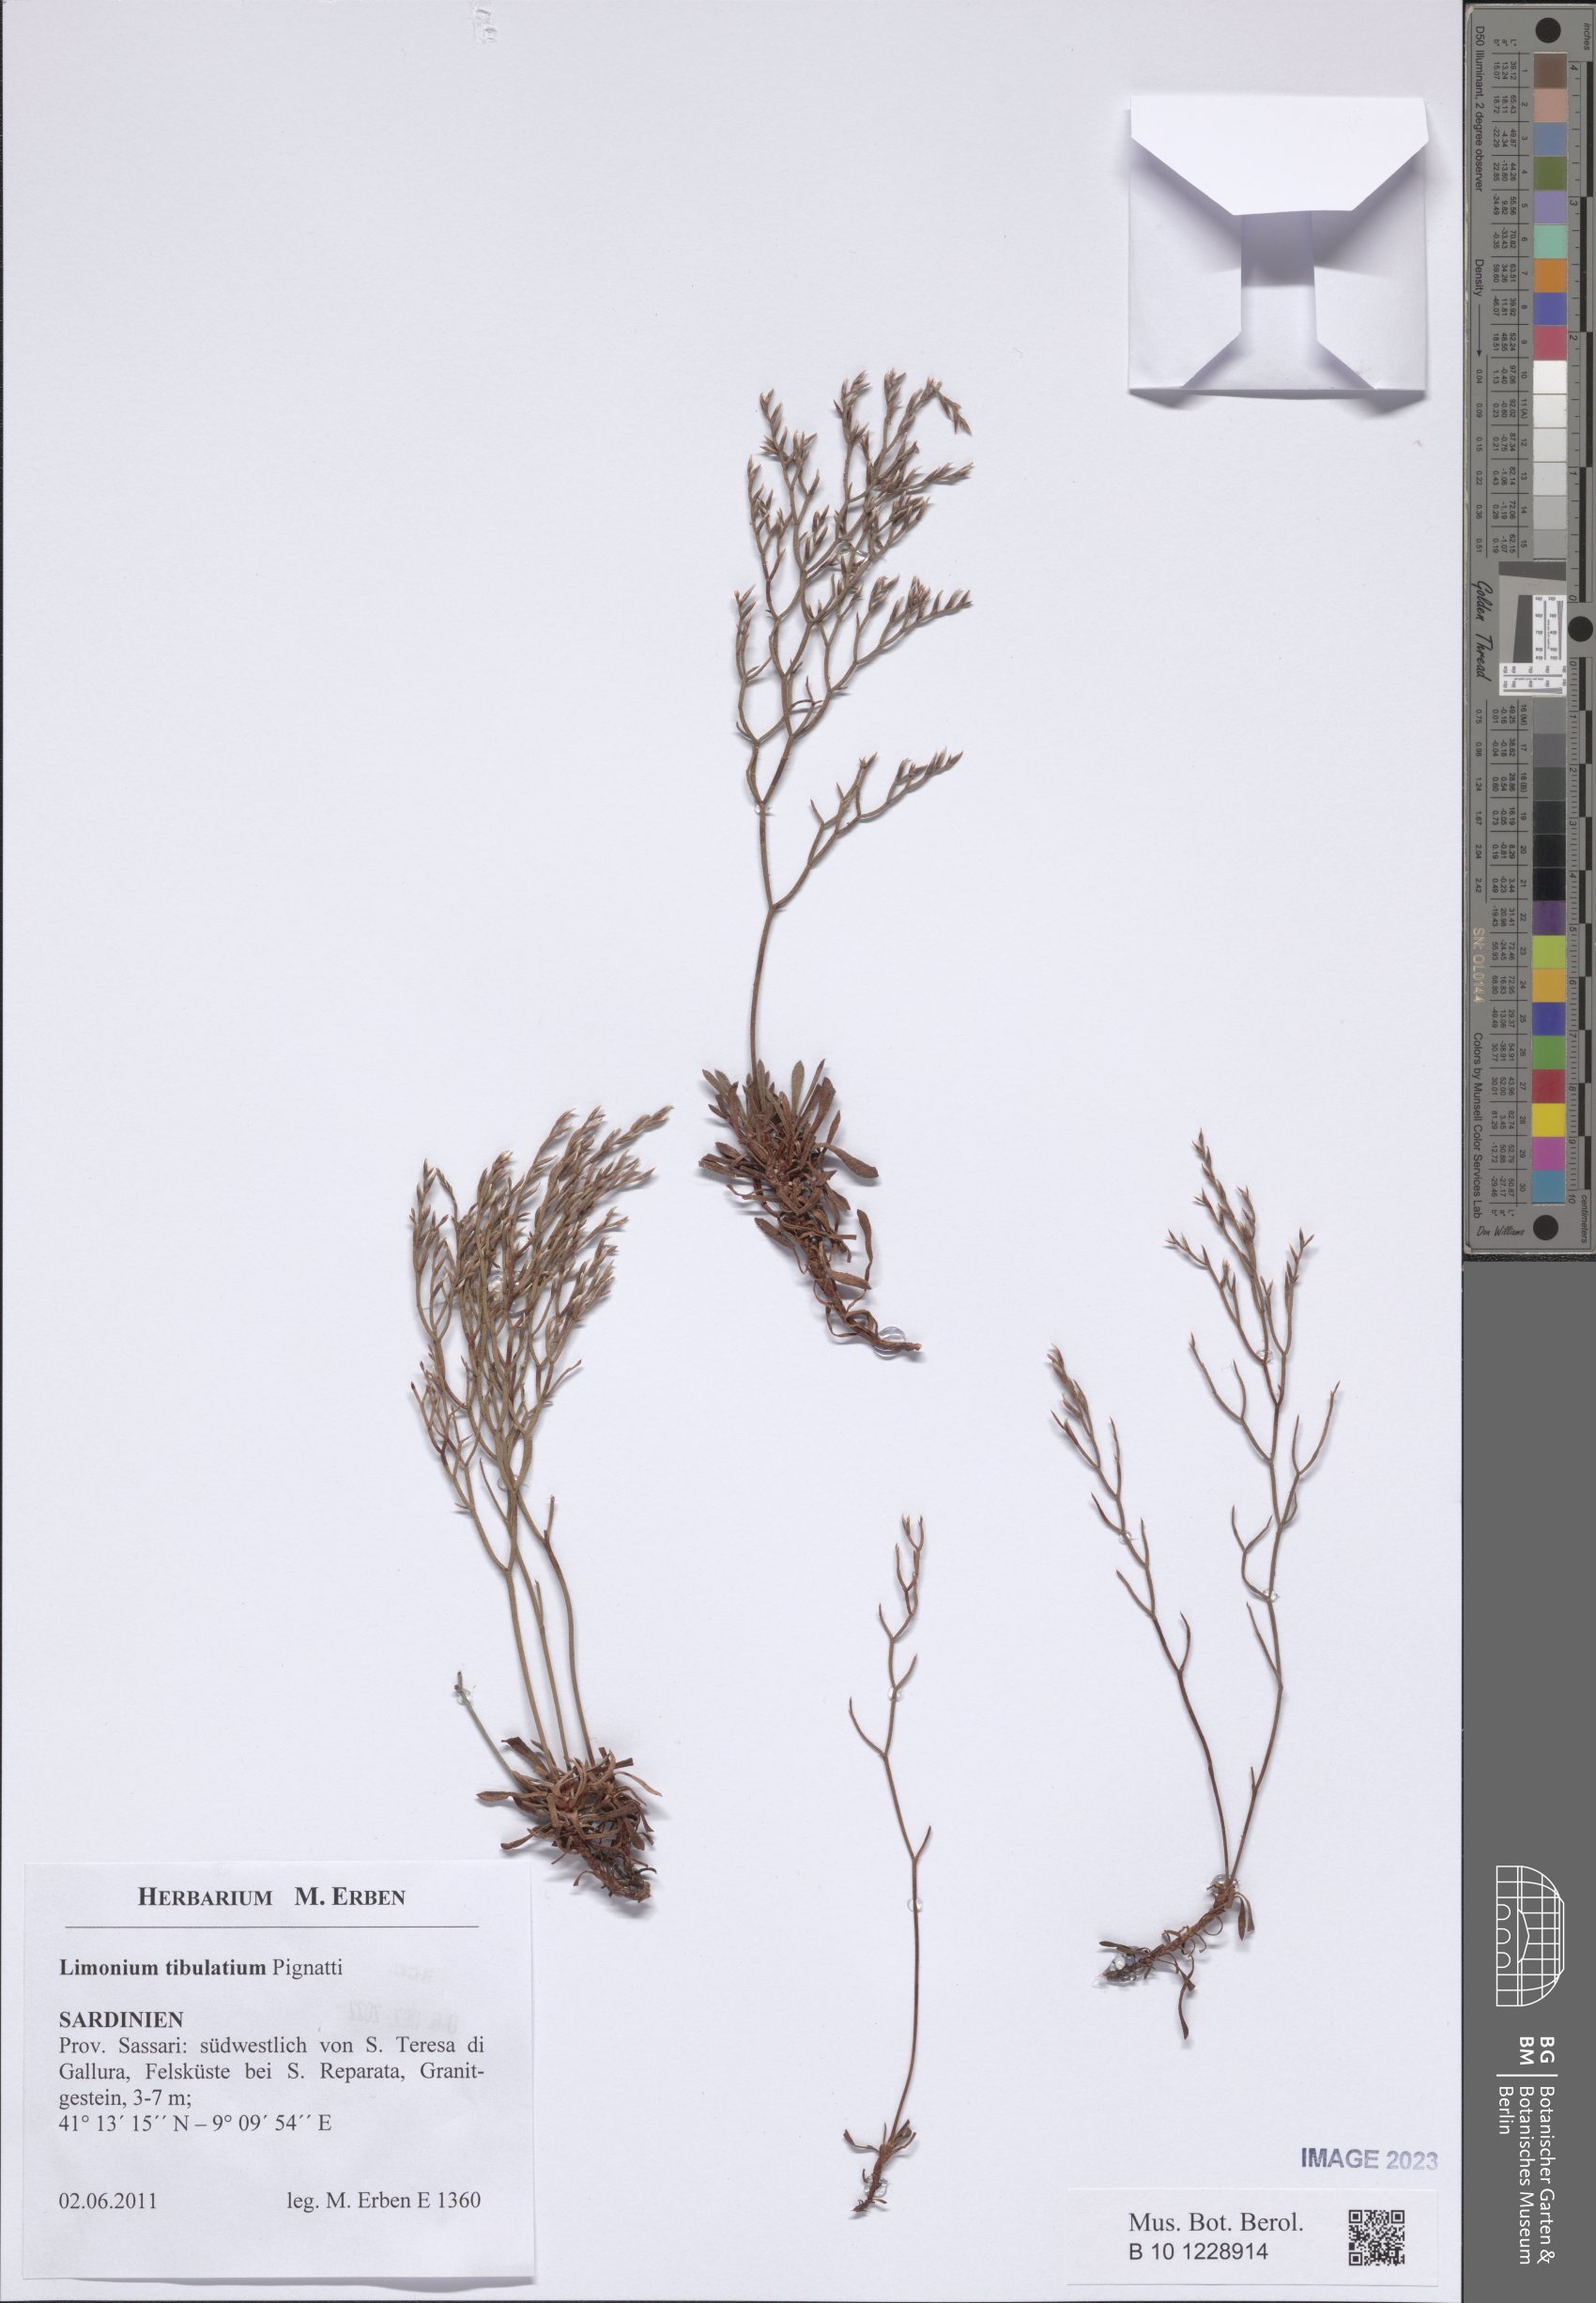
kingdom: Plantae
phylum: Tracheophyta
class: Magnoliopsida
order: Caryophyllales
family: Plumbaginaceae
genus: Limonium
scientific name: Limonium tibulatium
